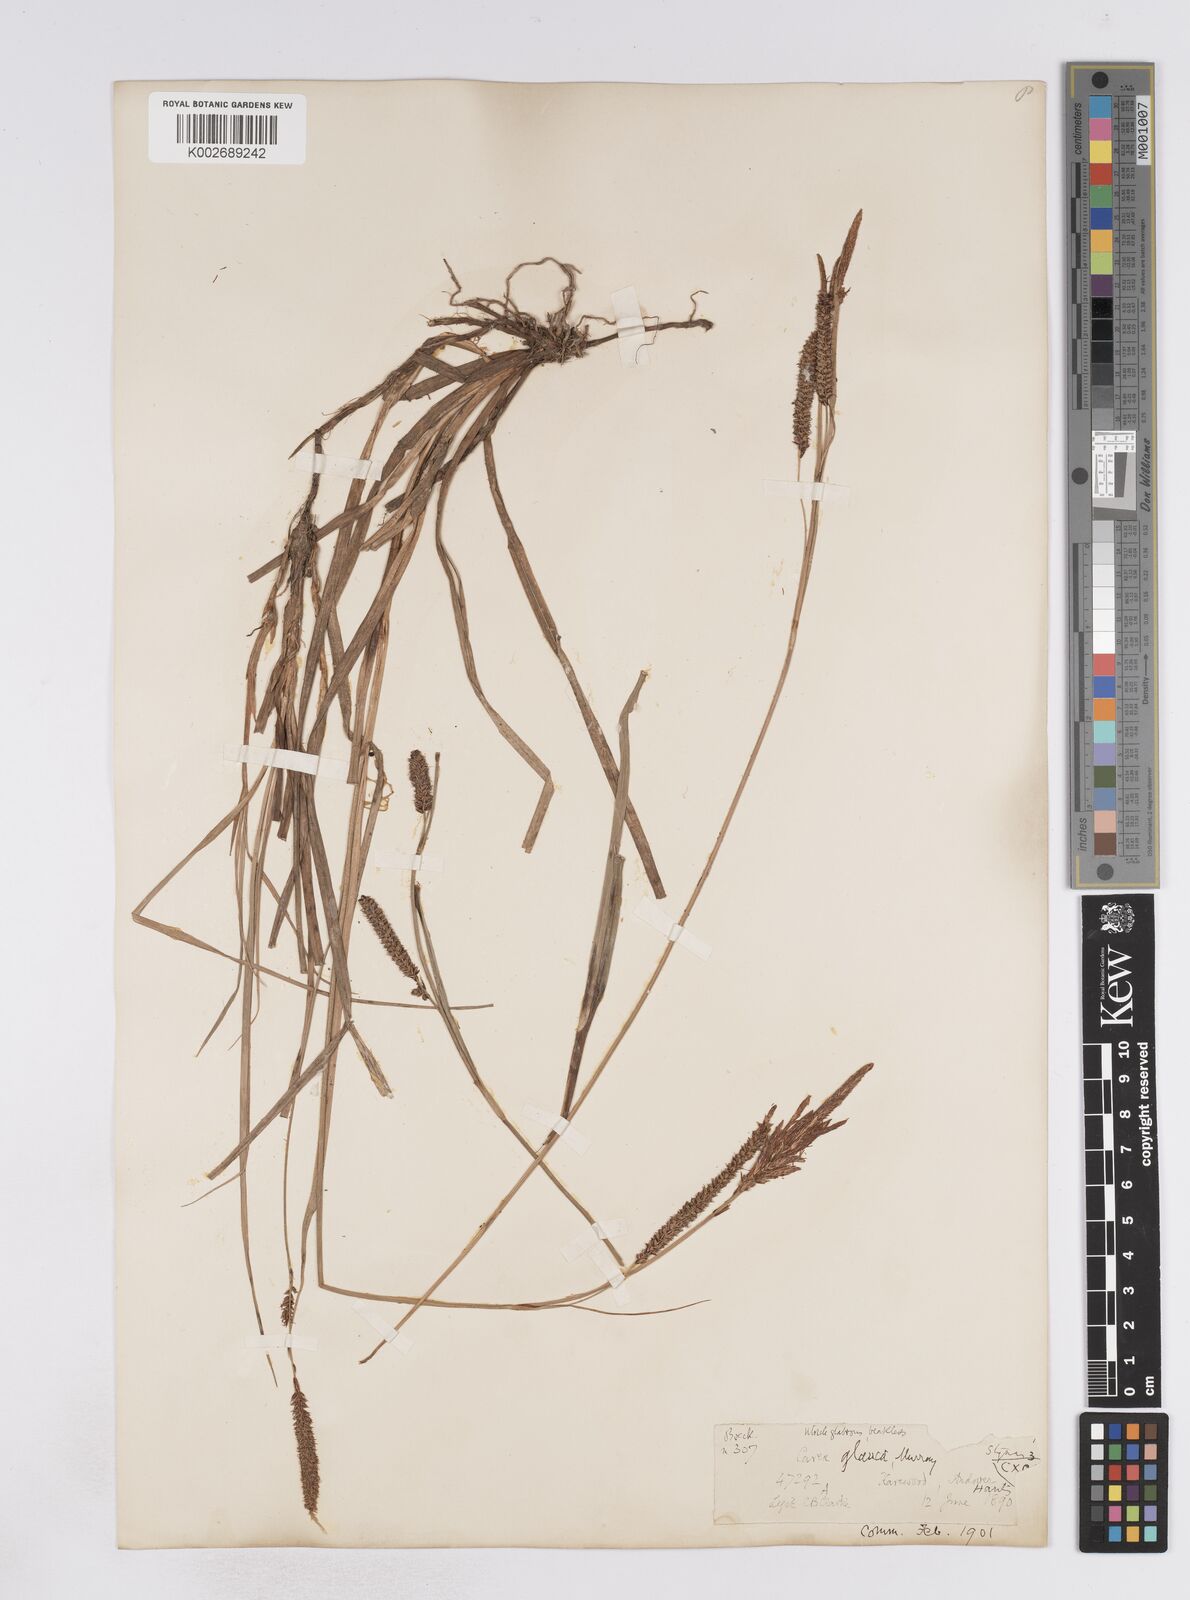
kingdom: Plantae
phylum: Tracheophyta
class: Liliopsida
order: Poales
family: Cyperaceae
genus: Carex
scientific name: Carex flacca
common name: Glaucous sedge
